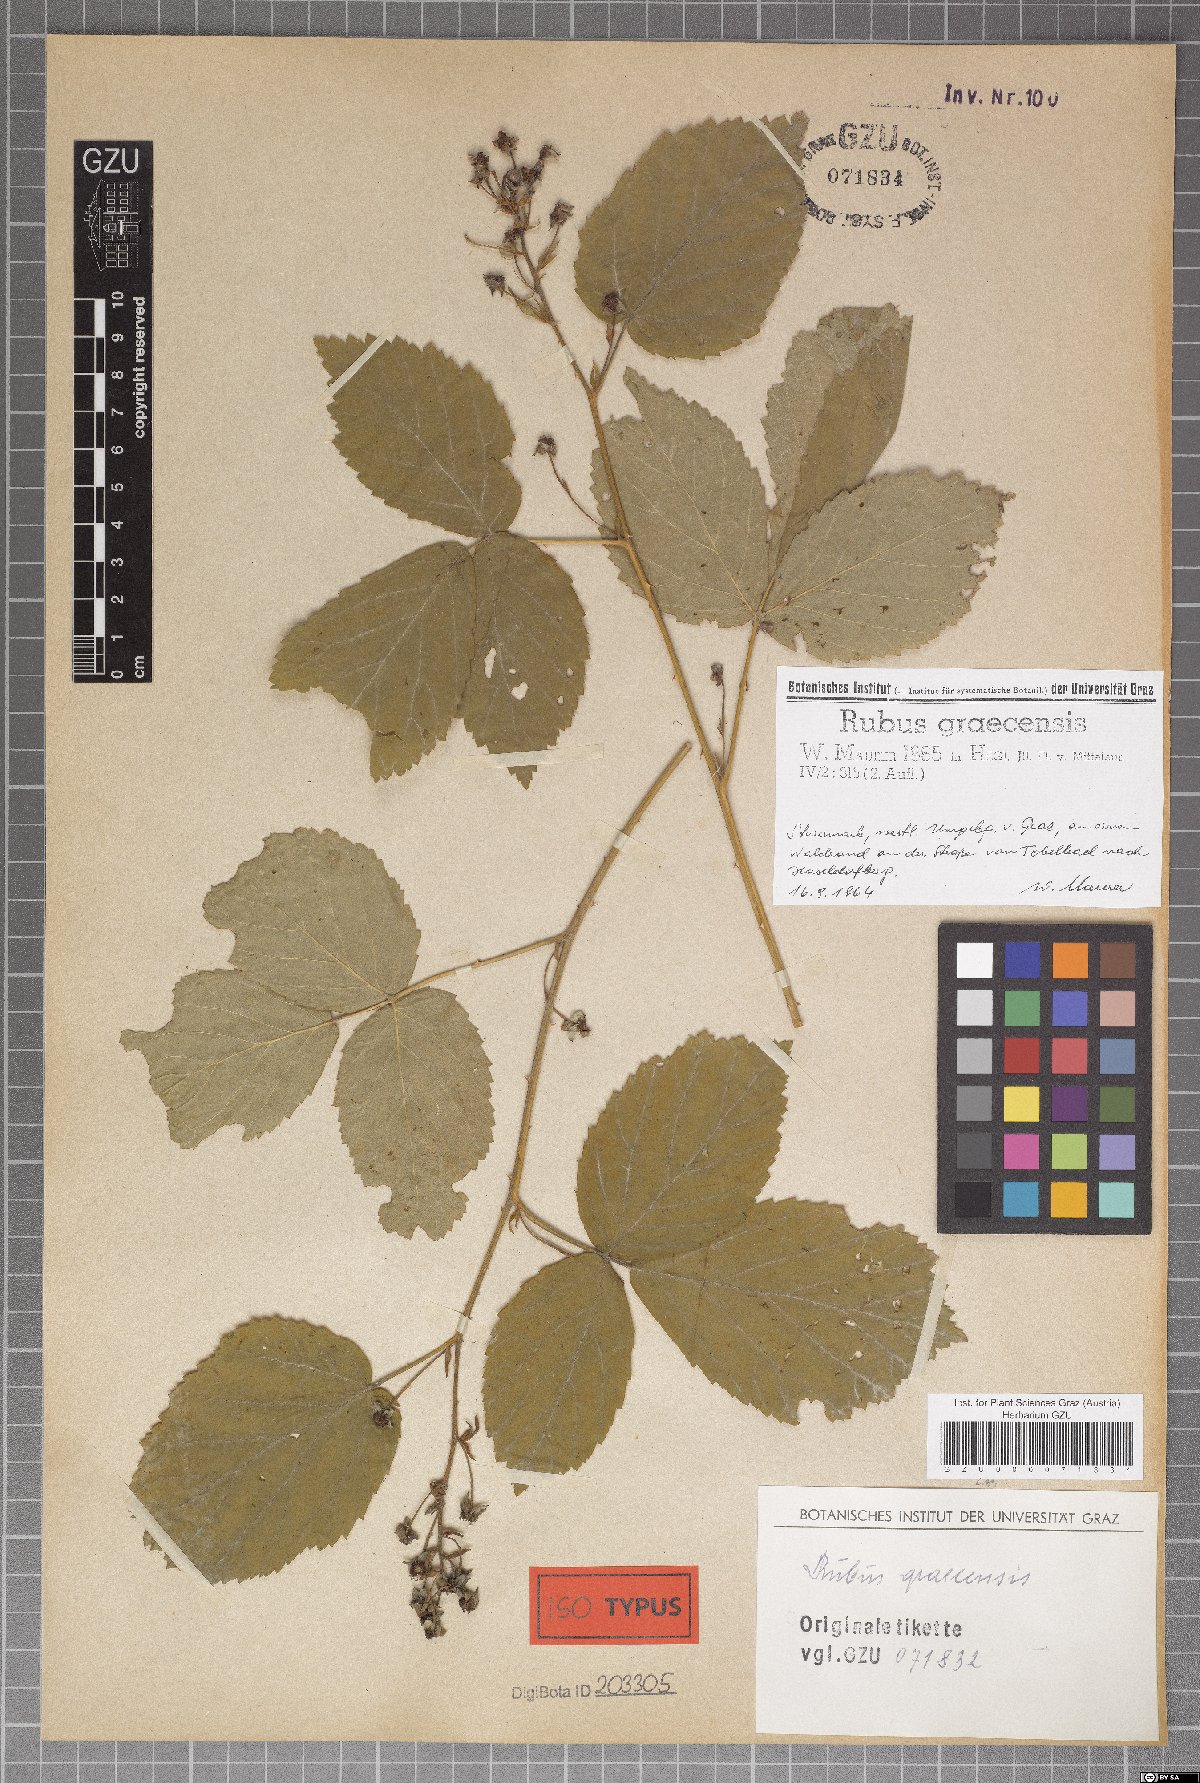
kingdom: Plantae
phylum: Tracheophyta
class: Magnoliopsida
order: Rosales
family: Rosaceae
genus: Rubus
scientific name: Rubus graecensis
